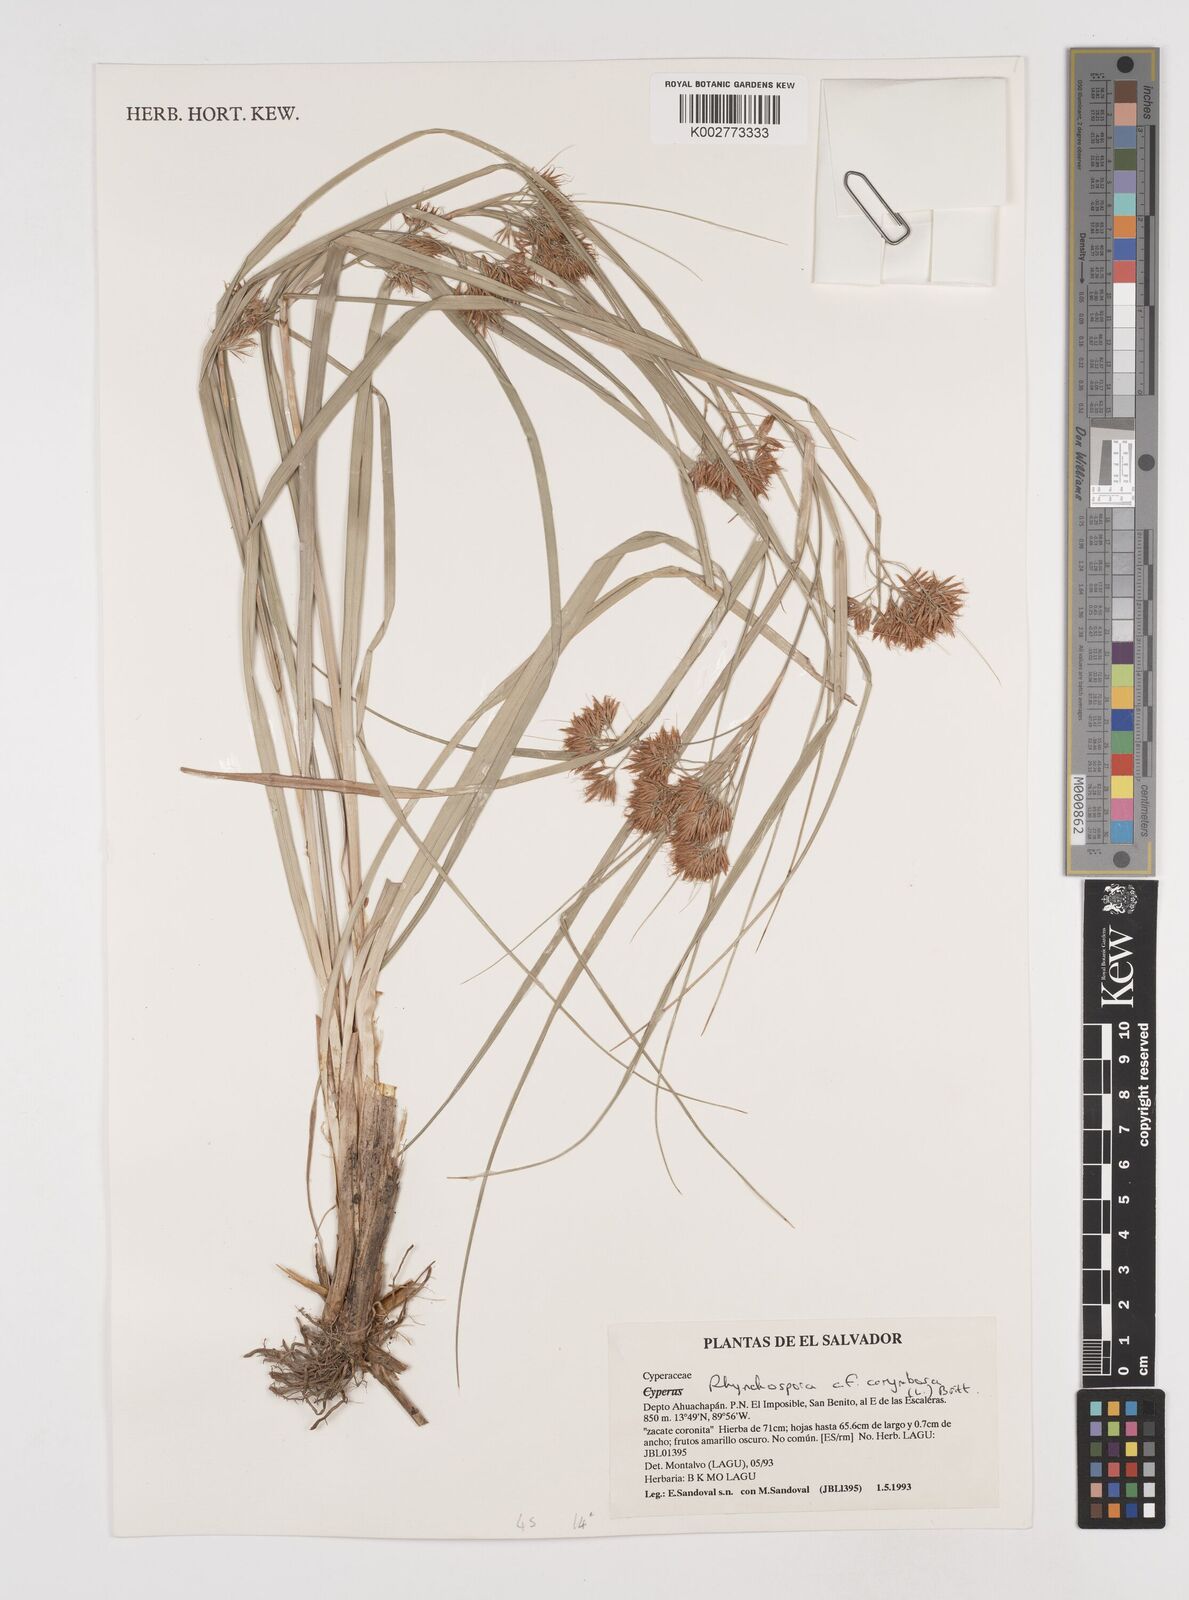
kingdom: Plantae
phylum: Tracheophyta
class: Liliopsida
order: Poales
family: Cyperaceae
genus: Rhynchospora
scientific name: Rhynchospora corymbosa
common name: Golden beak sedge
